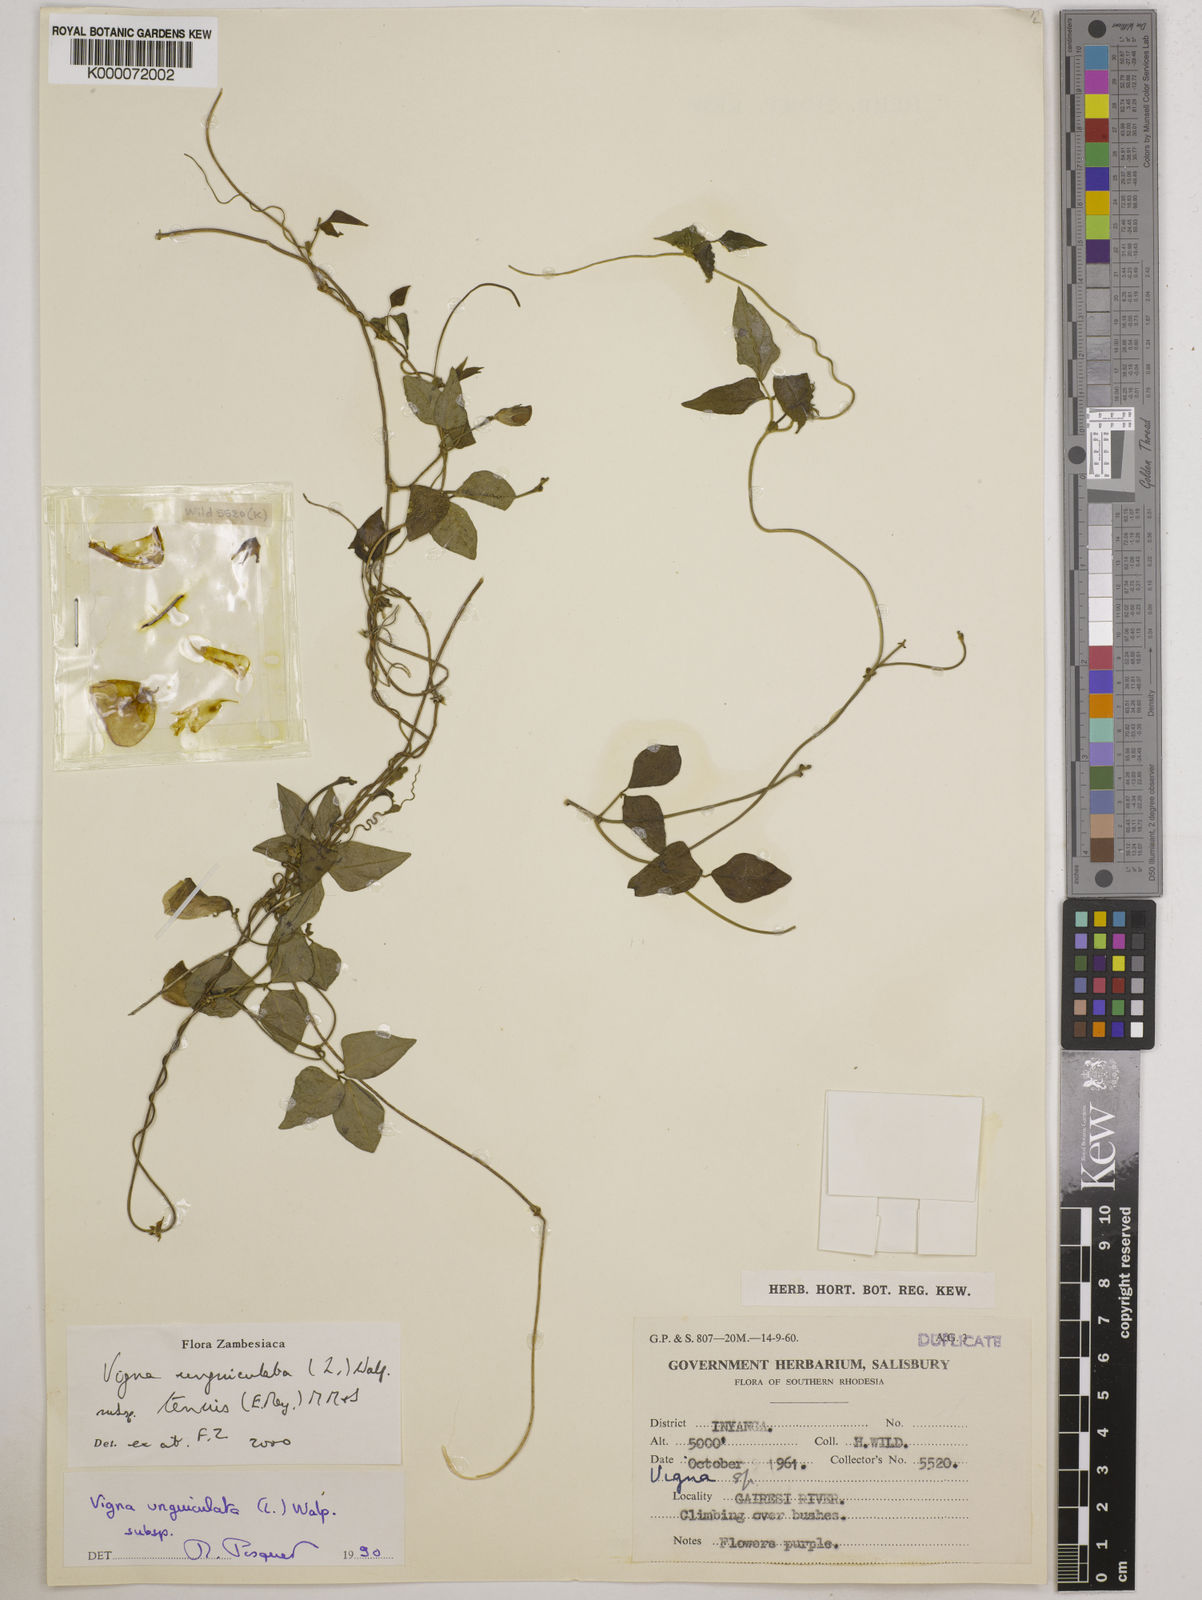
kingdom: Plantae
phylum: Tracheophyta
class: Magnoliopsida
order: Fabales
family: Fabaceae
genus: Vigna
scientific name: Vigna unguiculata
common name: Cowpea
